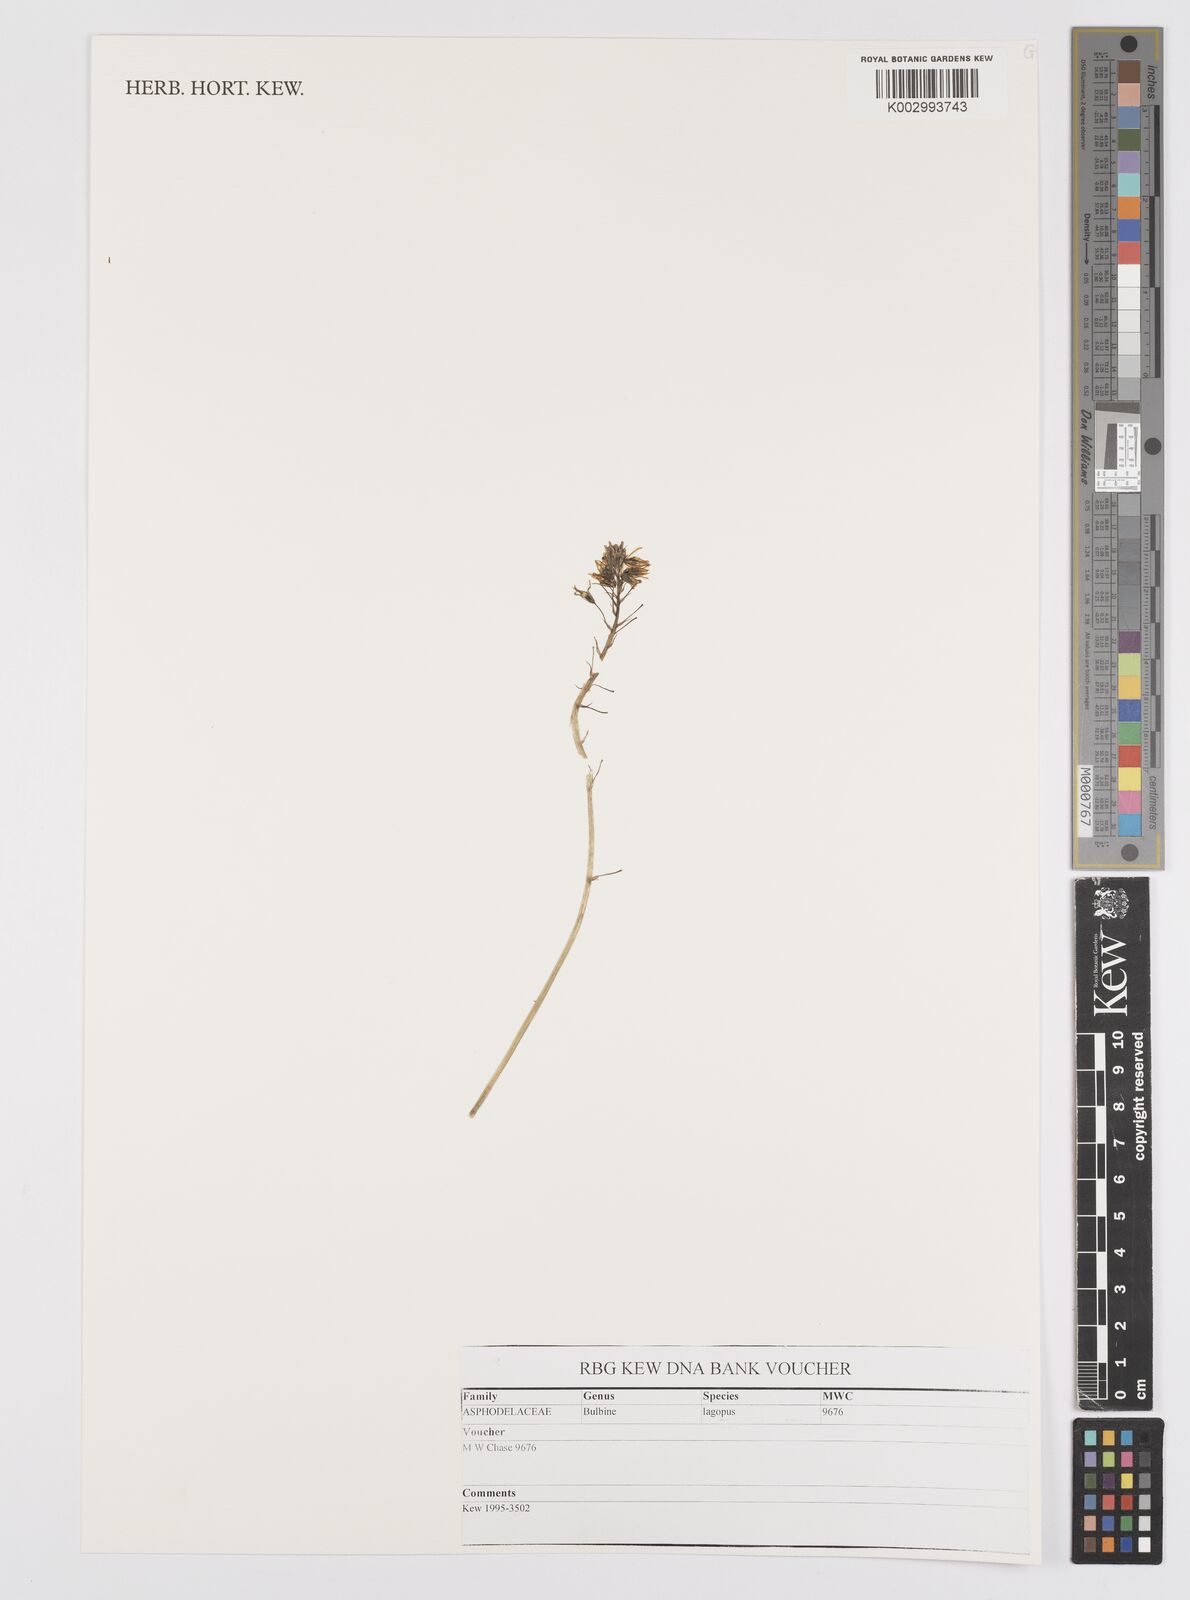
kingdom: Plantae
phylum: Tracheophyta
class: Liliopsida
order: Asparagales
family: Asphodelaceae
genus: Bulbine
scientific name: Bulbine lagopus
